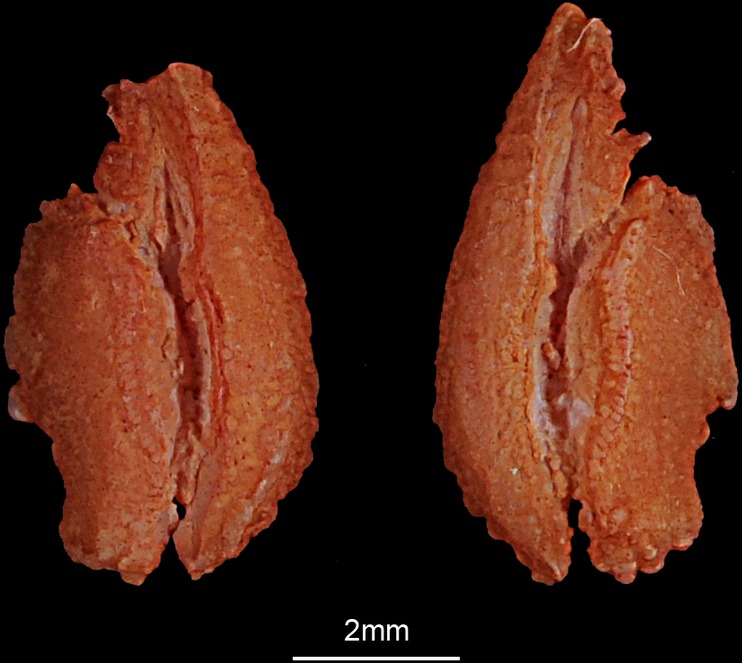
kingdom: Animalia
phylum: Chordata
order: Esociformes
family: Esocidae
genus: Esox
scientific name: Esox lucius
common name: Northern pike
